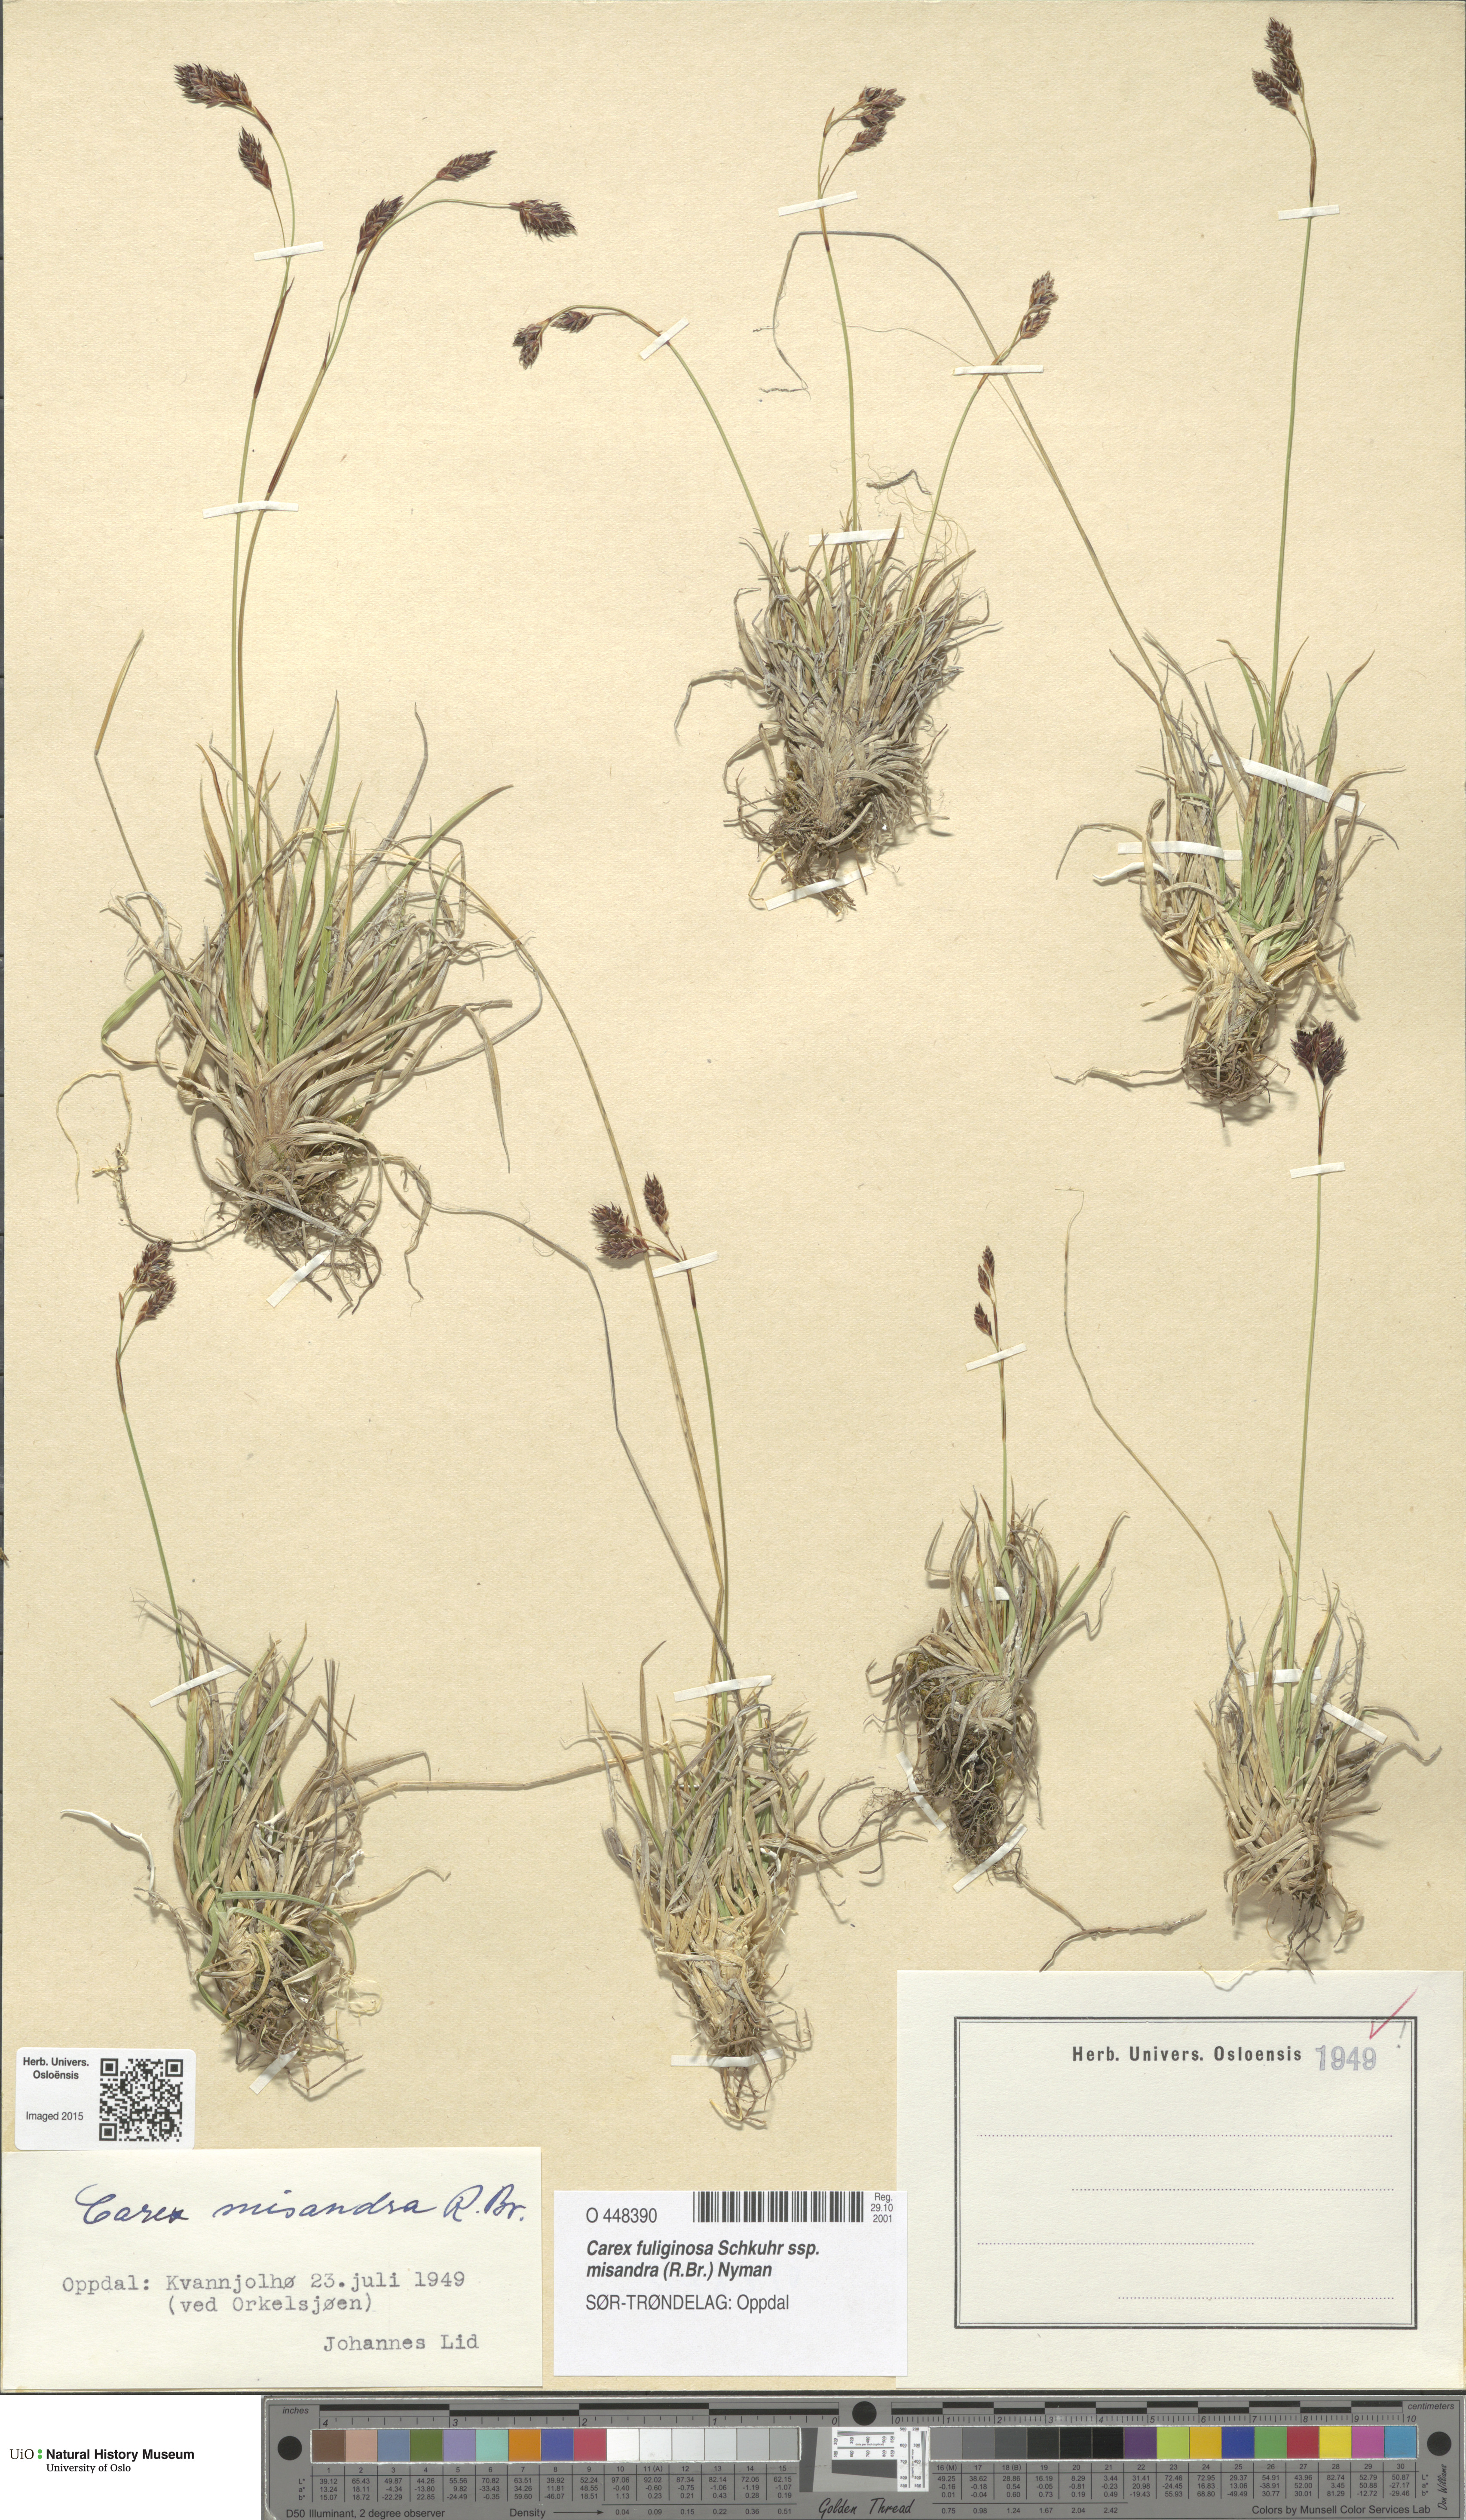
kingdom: Plantae
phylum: Tracheophyta
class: Liliopsida
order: Poales
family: Cyperaceae
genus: Carex
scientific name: Carex fuliginosa
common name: Few-flowered sedge
